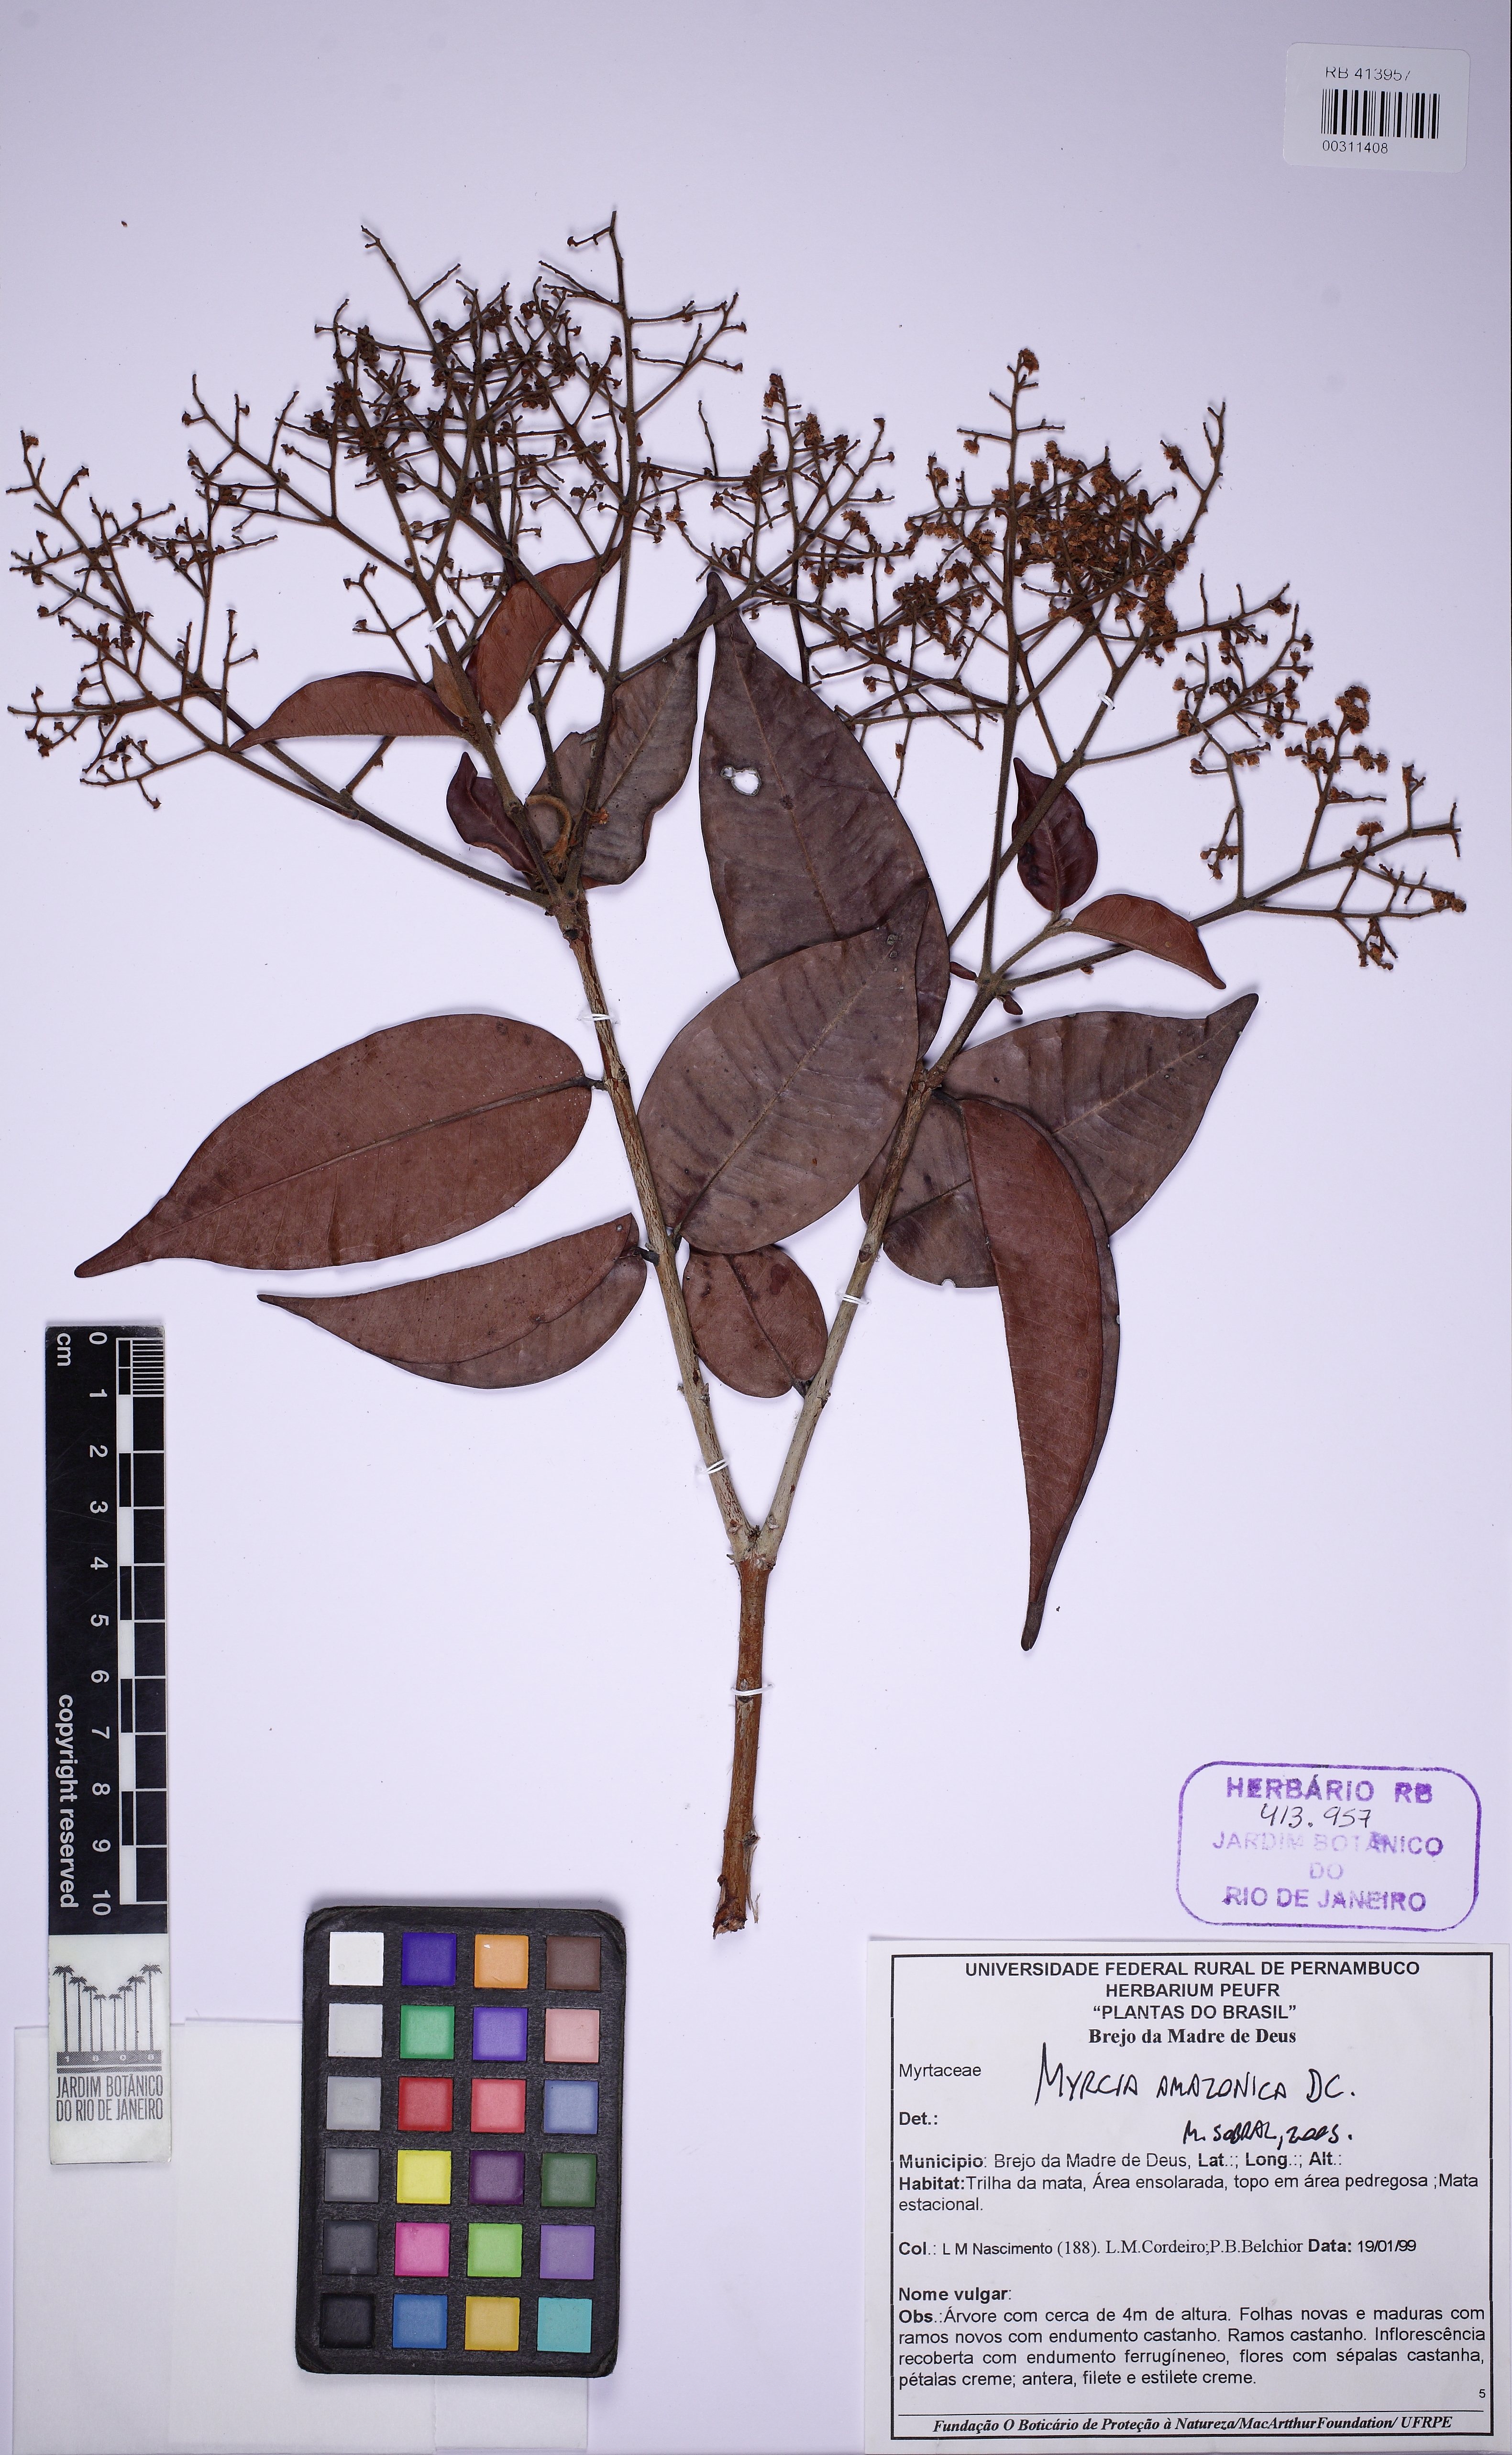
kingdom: Plantae
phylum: Tracheophyta
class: Magnoliopsida
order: Myrtales
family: Myrtaceae
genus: Myrcia
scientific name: Myrcia amazonica
